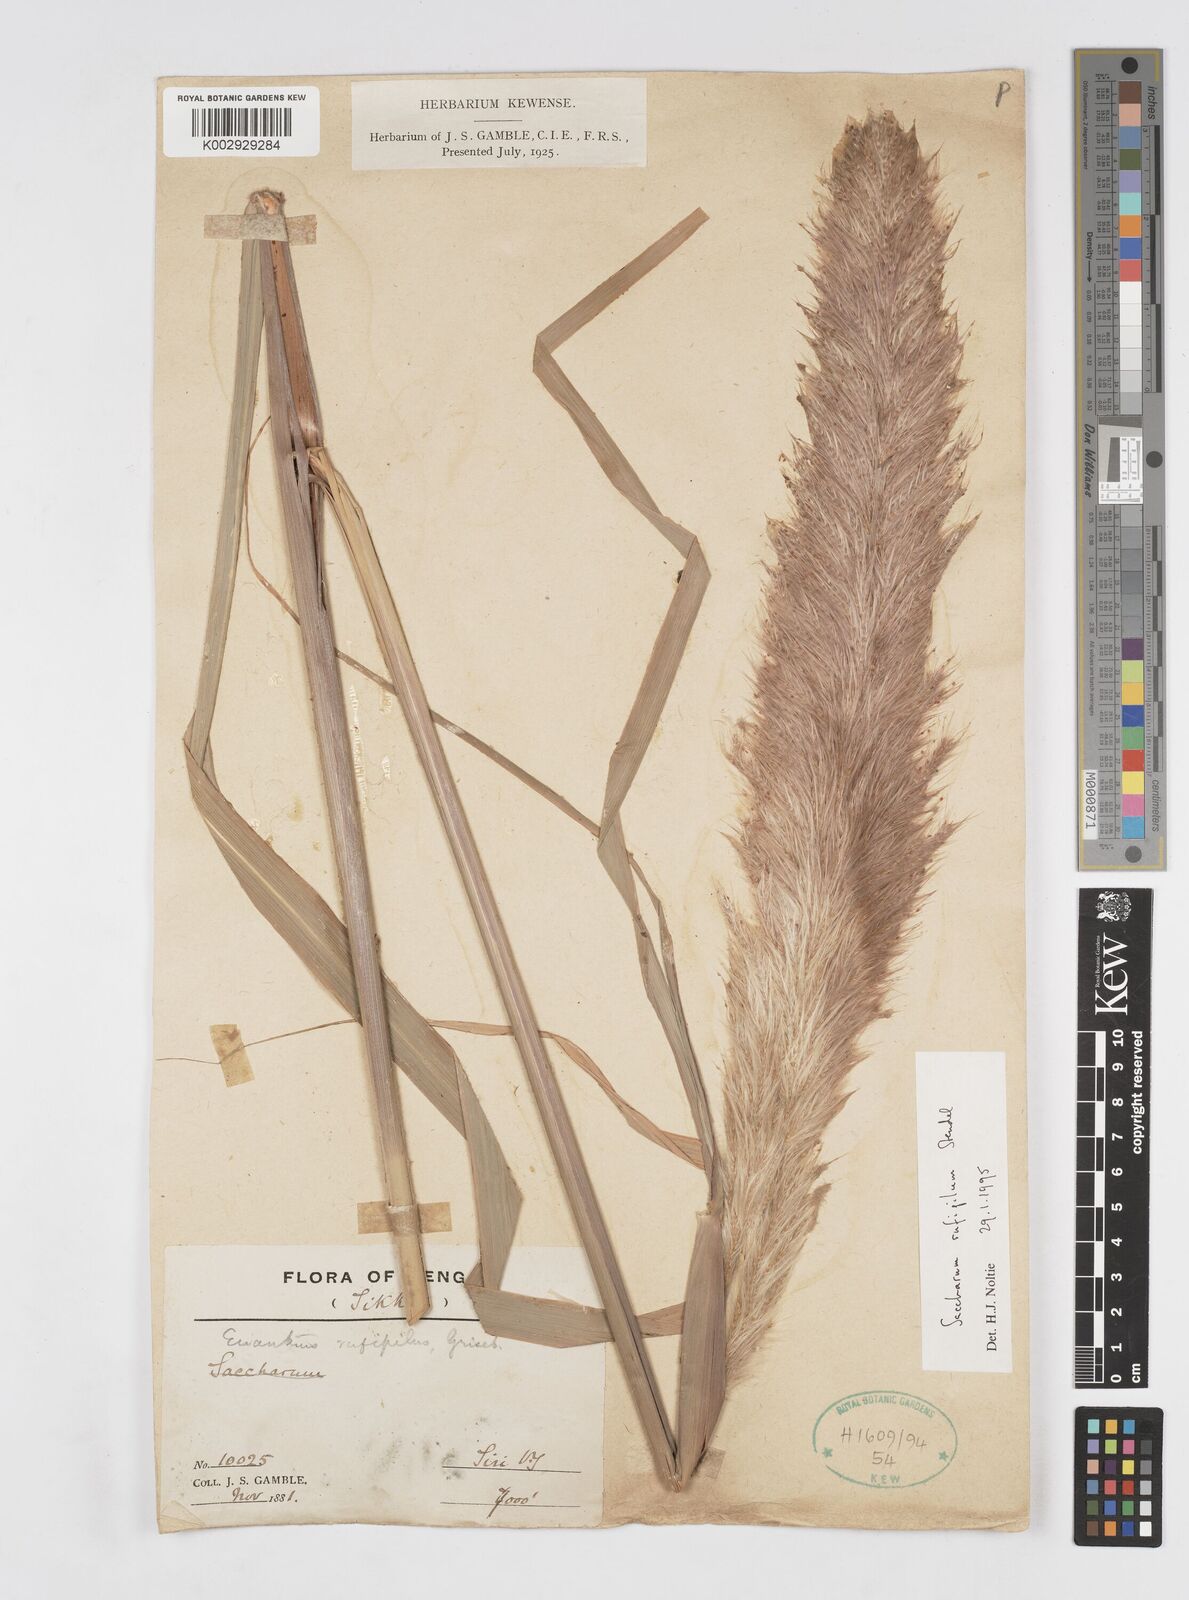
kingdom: Plantae
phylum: Tracheophyta
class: Liliopsida
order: Poales
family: Poaceae
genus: Tripidium
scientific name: Tripidium rufipilum
